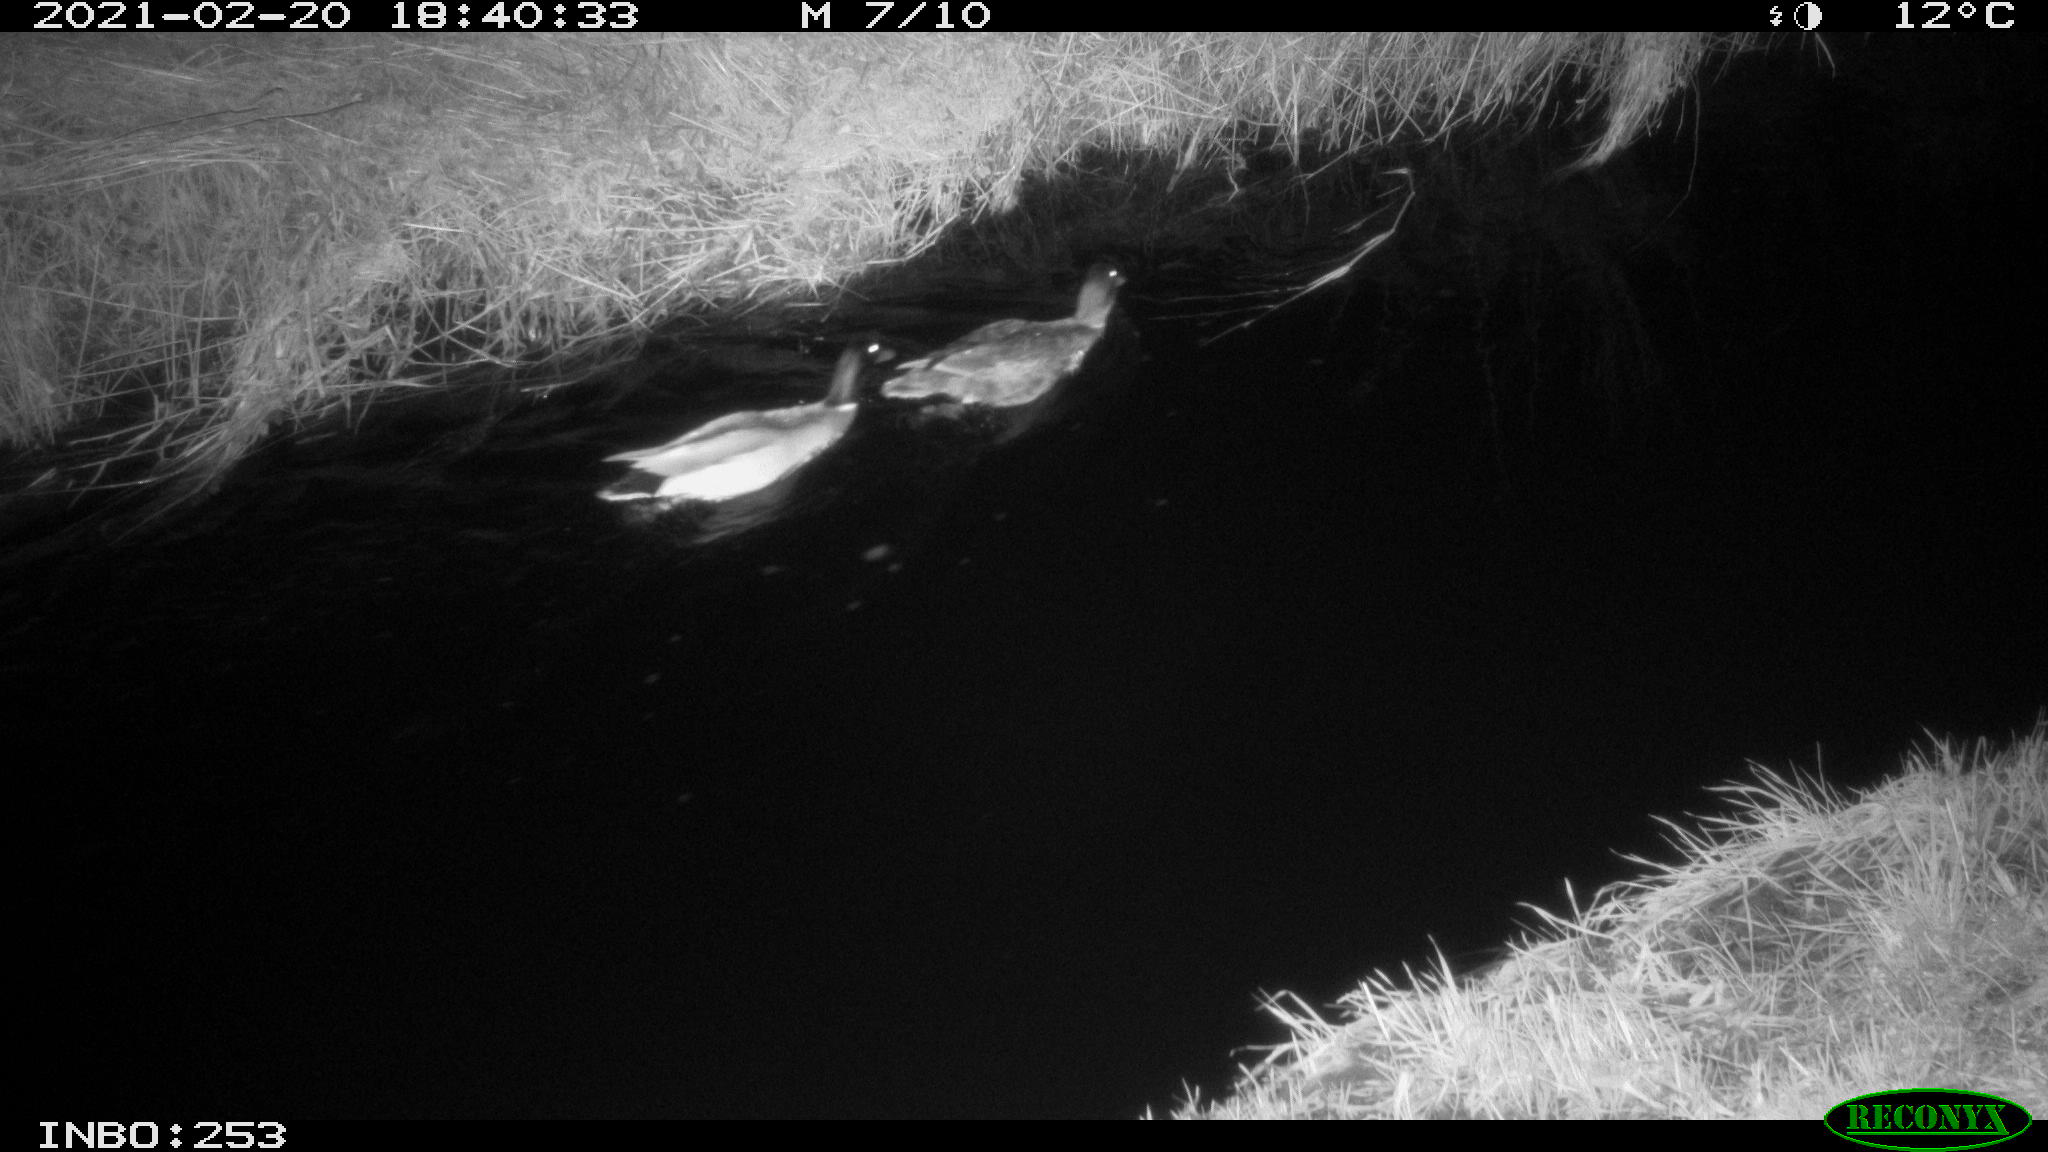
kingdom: Animalia
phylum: Chordata
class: Aves
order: Anseriformes
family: Anatidae
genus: Anas
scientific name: Anas platyrhynchos
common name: Mallard
